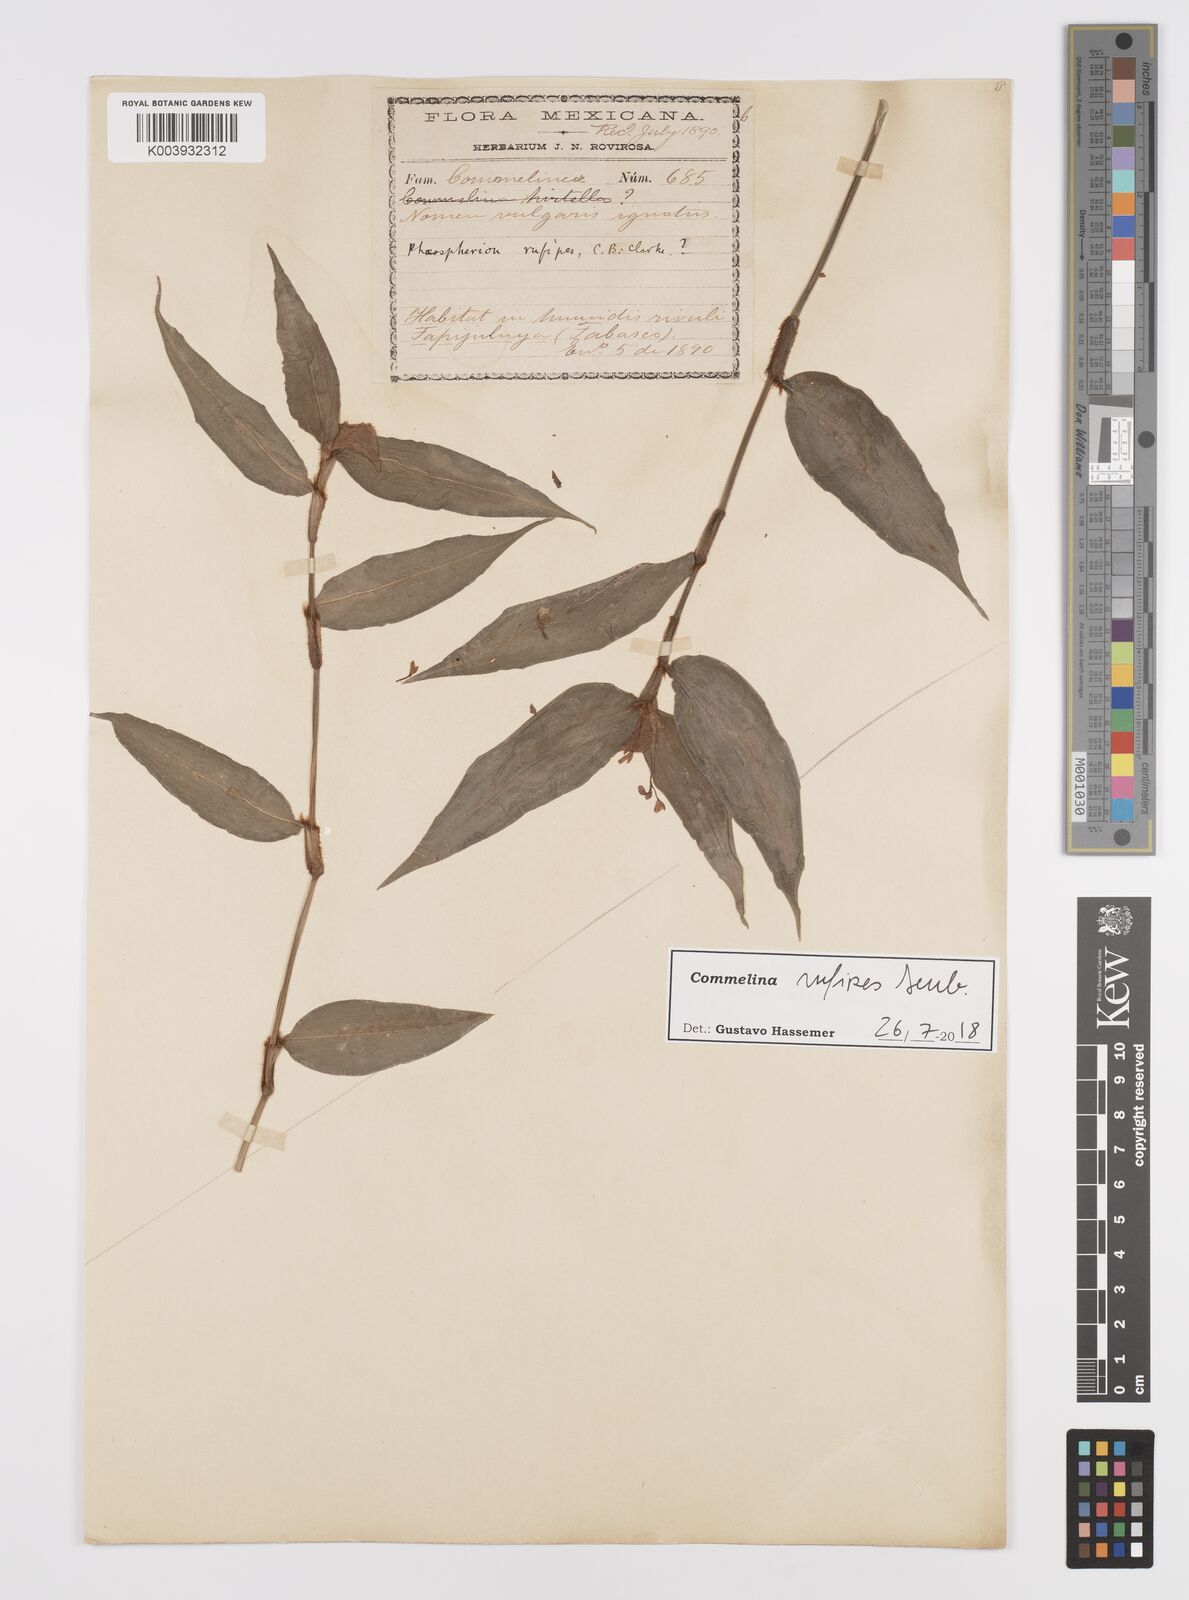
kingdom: Plantae
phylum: Tracheophyta
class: Liliopsida
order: Commelinales
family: Commelinaceae
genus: Commelina
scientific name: Commelina rufipes
